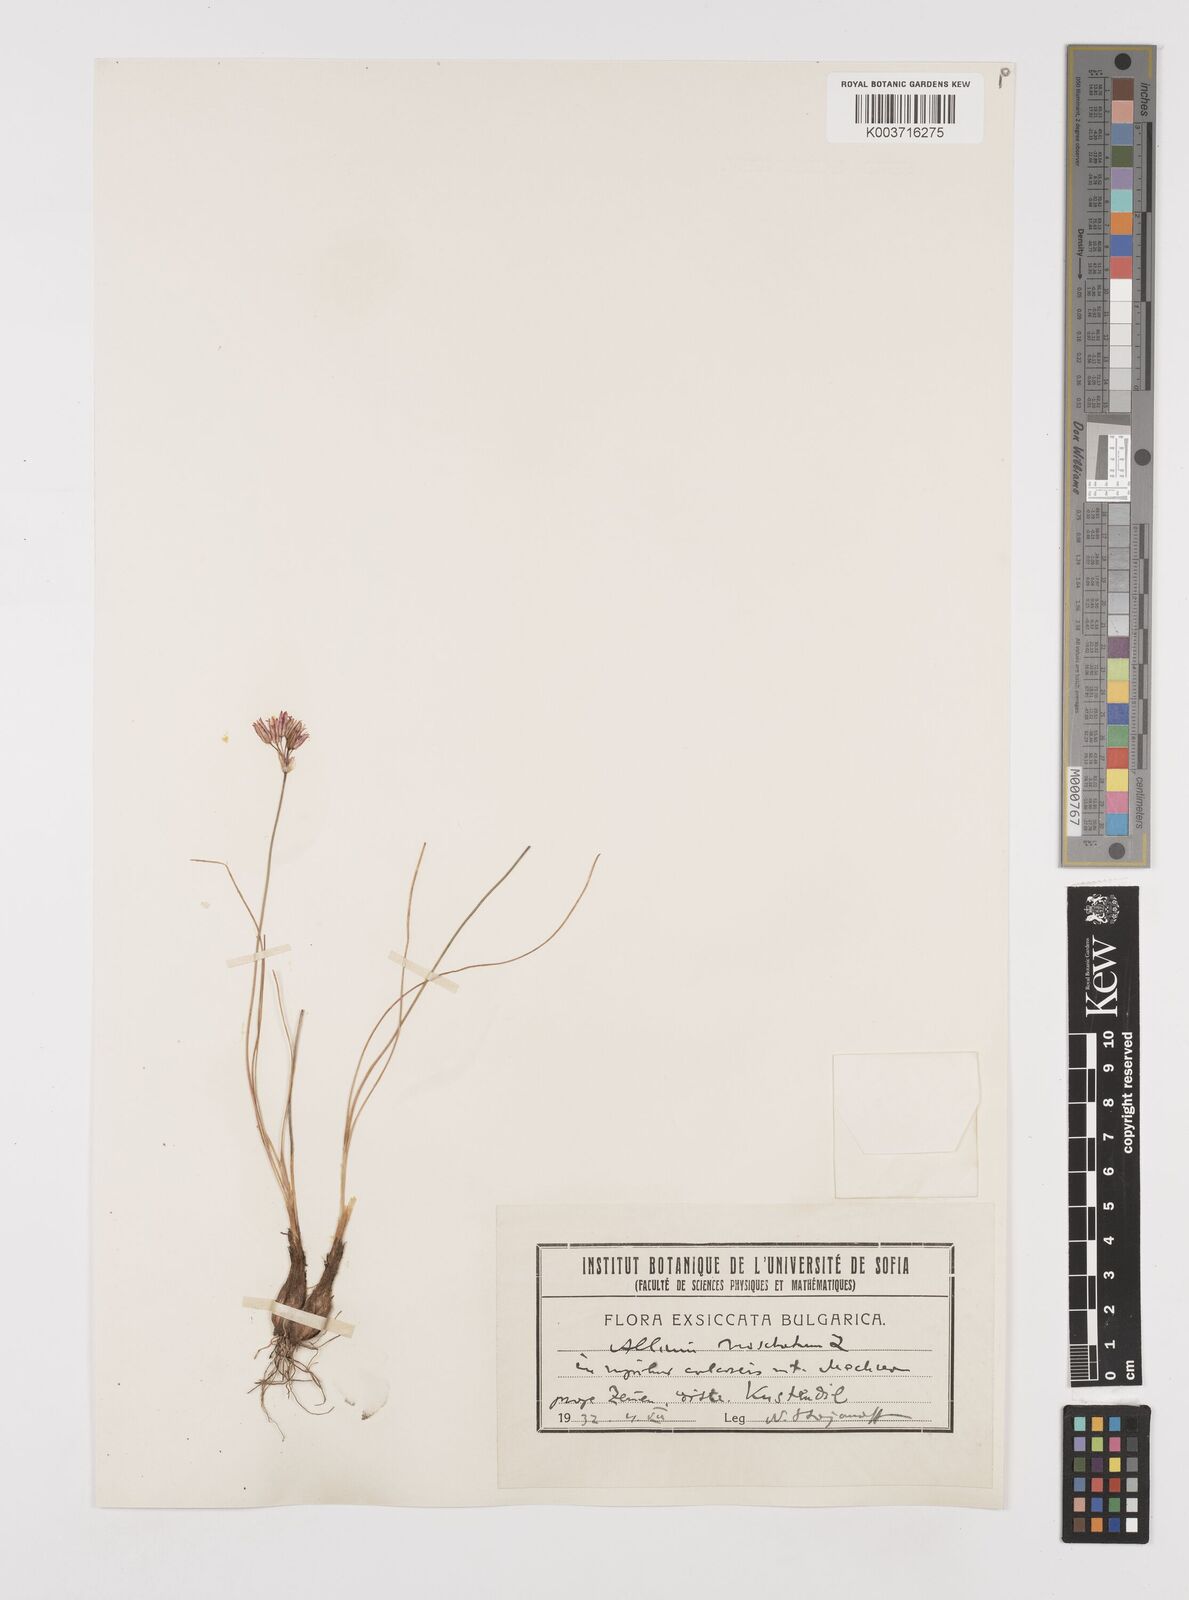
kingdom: Plantae
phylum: Tracheophyta
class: Liliopsida
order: Asparagales
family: Amaryllidaceae
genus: Allium
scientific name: Allium moschatum
